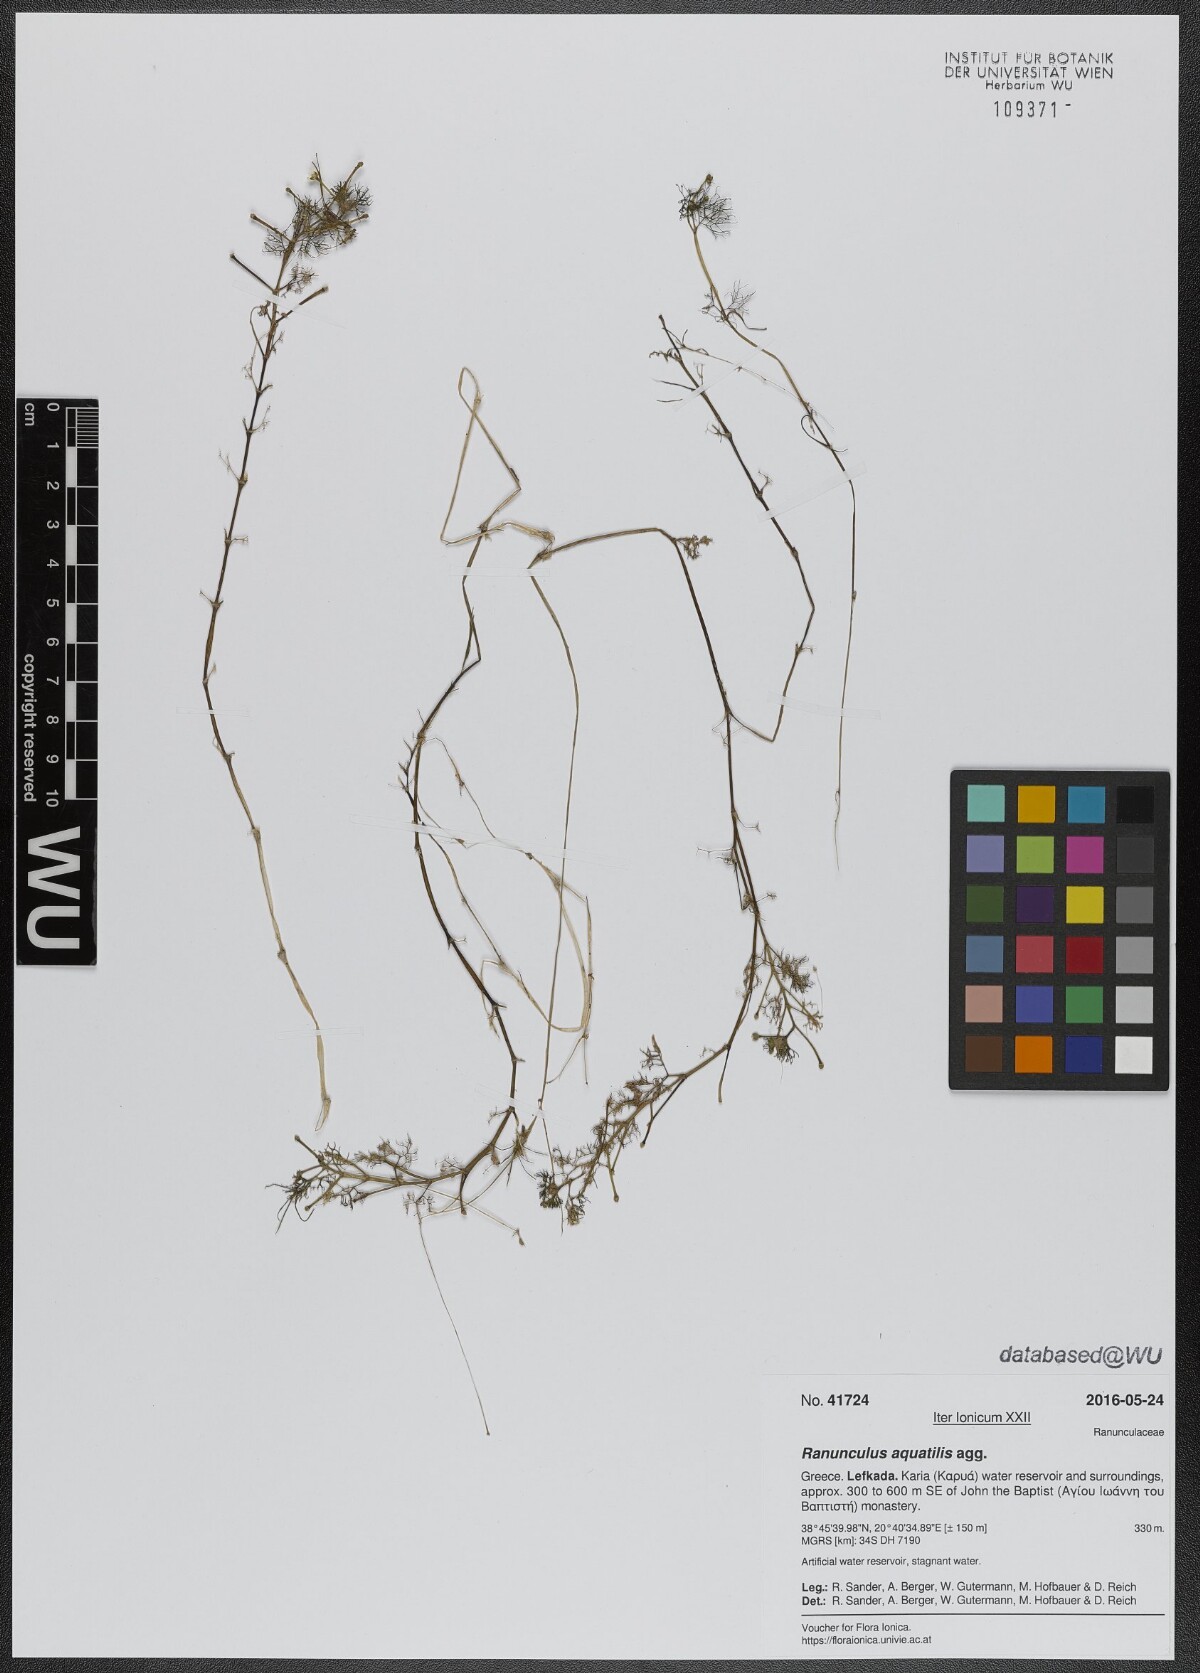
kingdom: Plantae
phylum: Tracheophyta
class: Magnoliopsida
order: Ranunculales
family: Ranunculaceae
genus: Ranunculus
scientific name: Ranunculus aquatilis
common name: Common water-crowfoot
